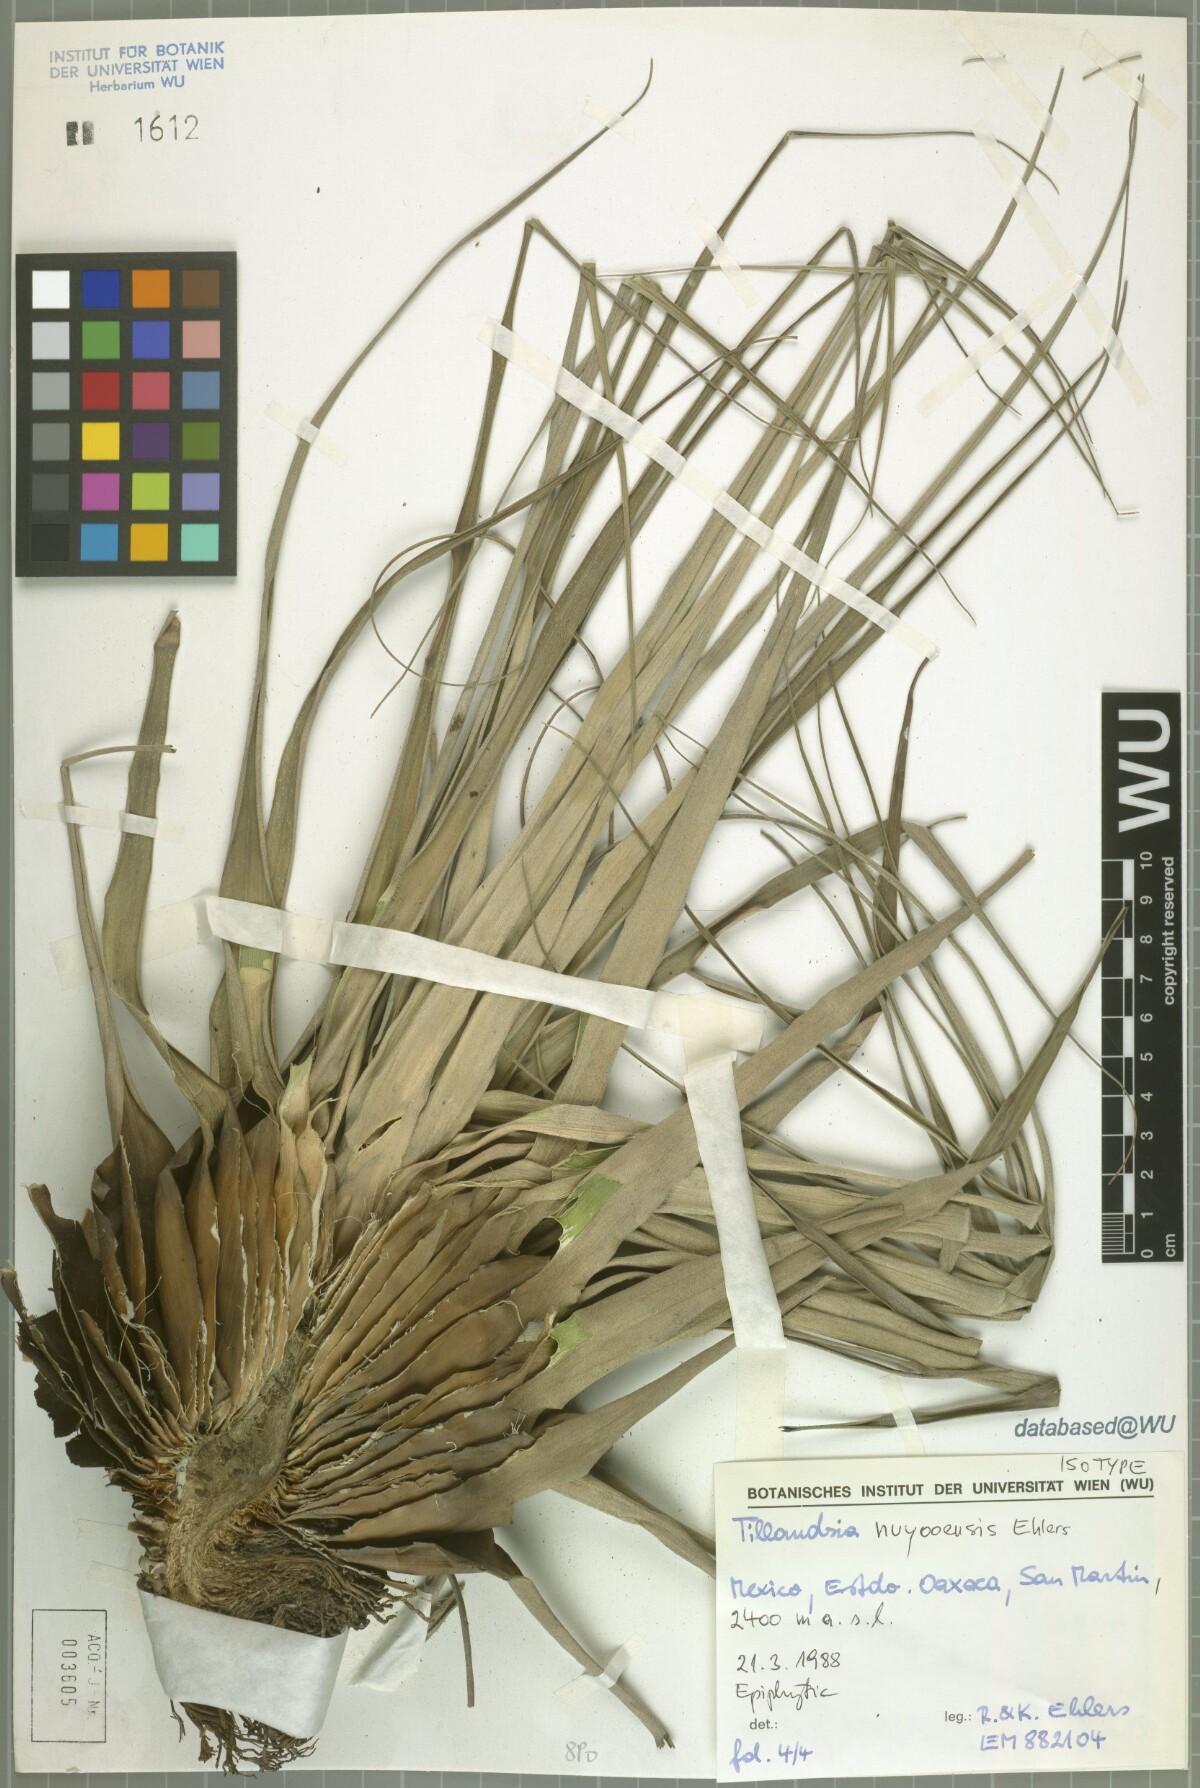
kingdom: Plantae
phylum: Tracheophyta
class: Liliopsida
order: Poales
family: Bromeliaceae
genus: Tillandsia
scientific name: Tillandsia nuyooensis
